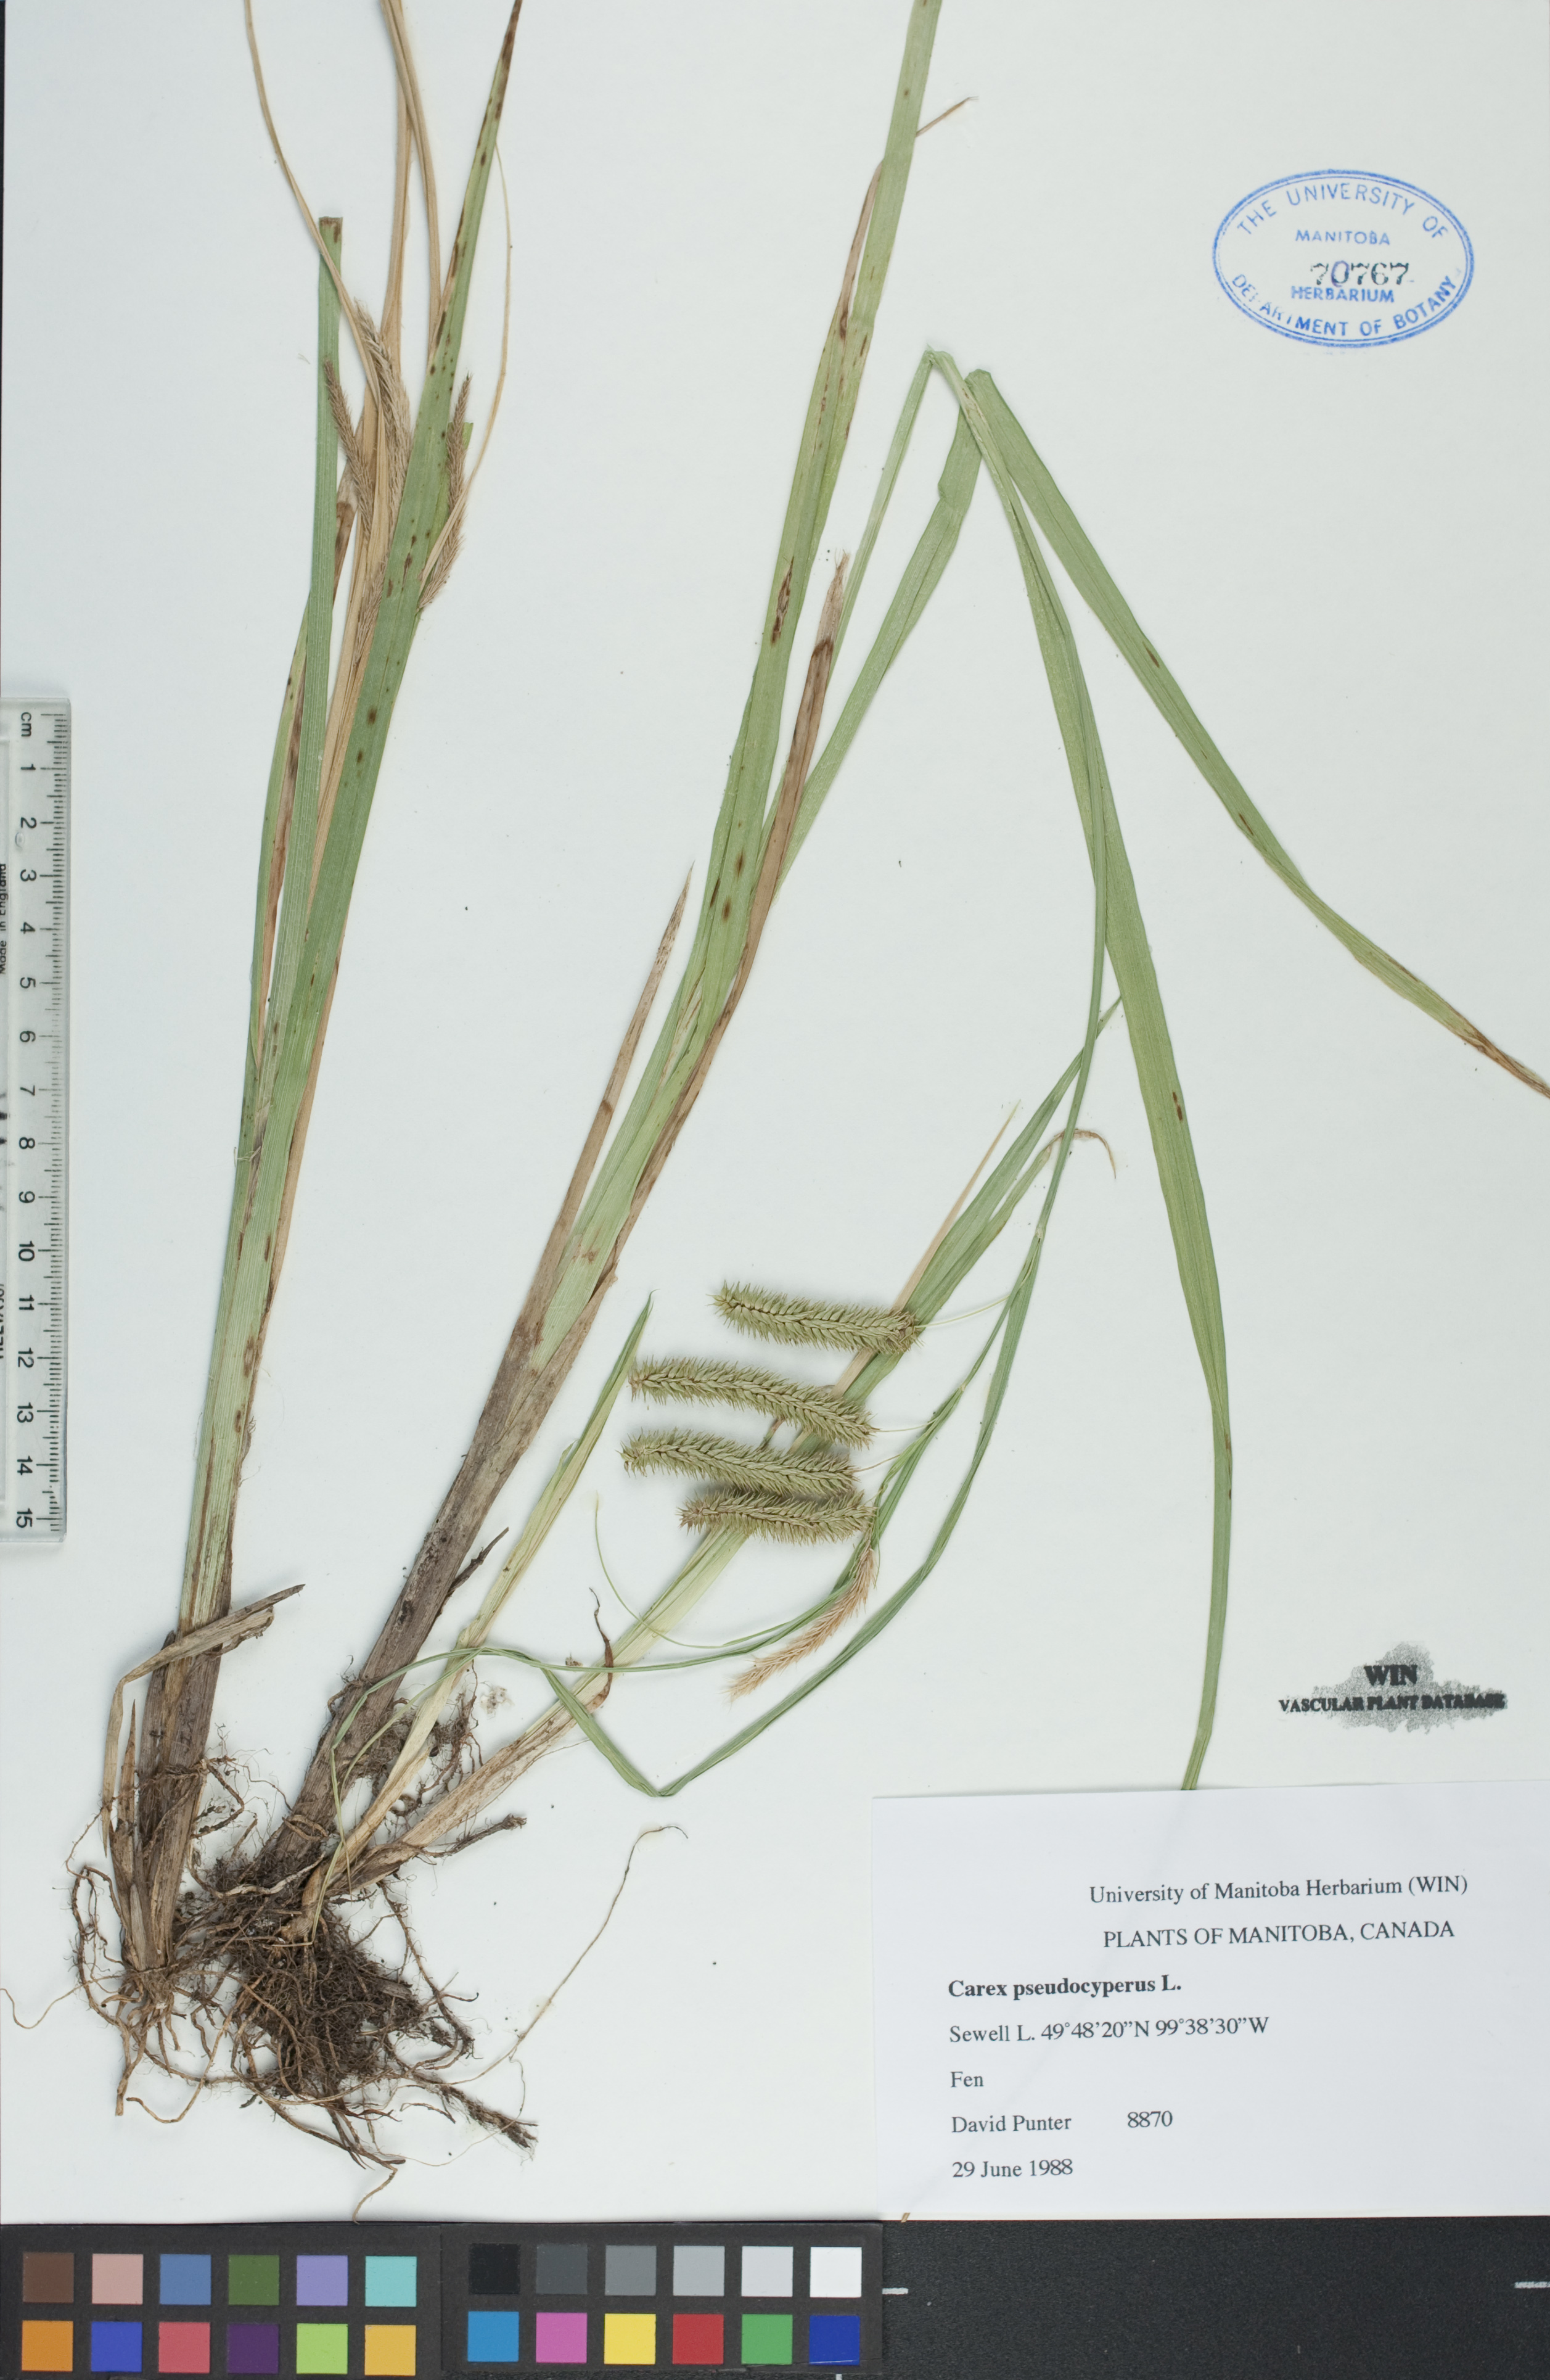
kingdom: Plantae
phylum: Tracheophyta
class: Liliopsida
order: Poales
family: Cyperaceae
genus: Carex
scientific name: Carex pseudocyperus
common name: Cyperus sedge
